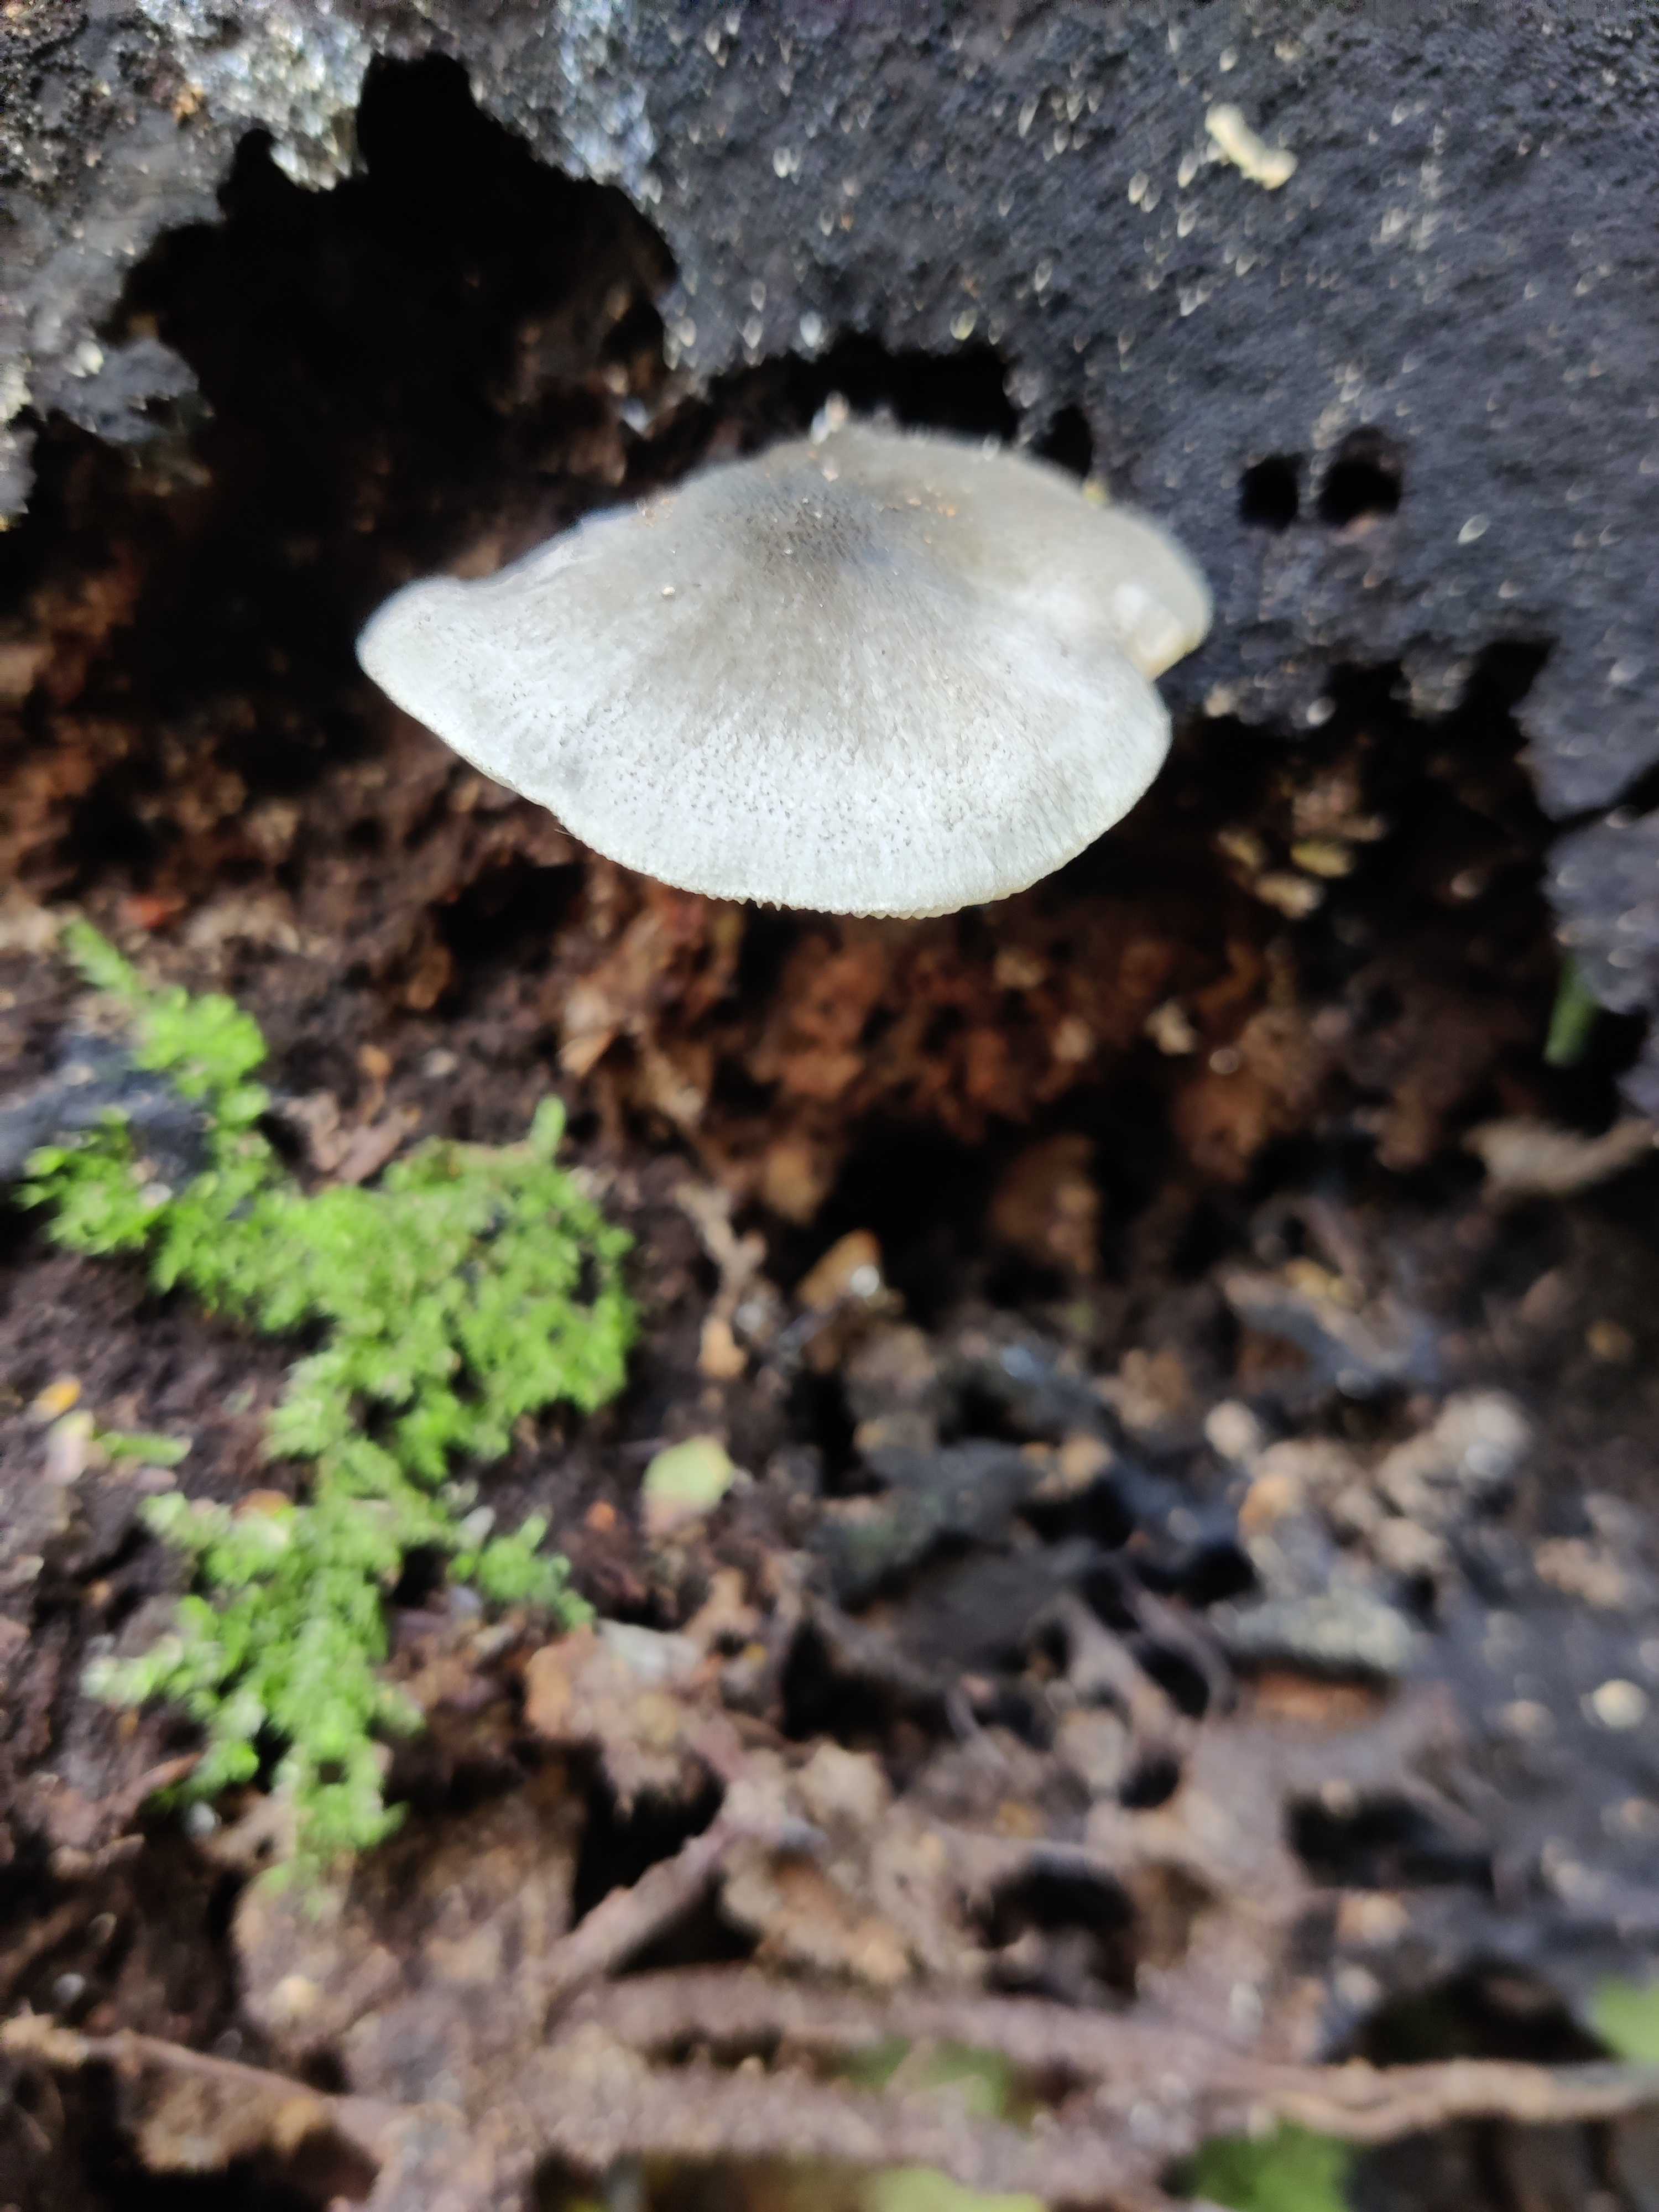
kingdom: Fungi
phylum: Basidiomycota
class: Agaricomycetes
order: Agaricales
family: Pluteaceae
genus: Pluteus
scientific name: Pluteus salicinus
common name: stiv skærmhat
